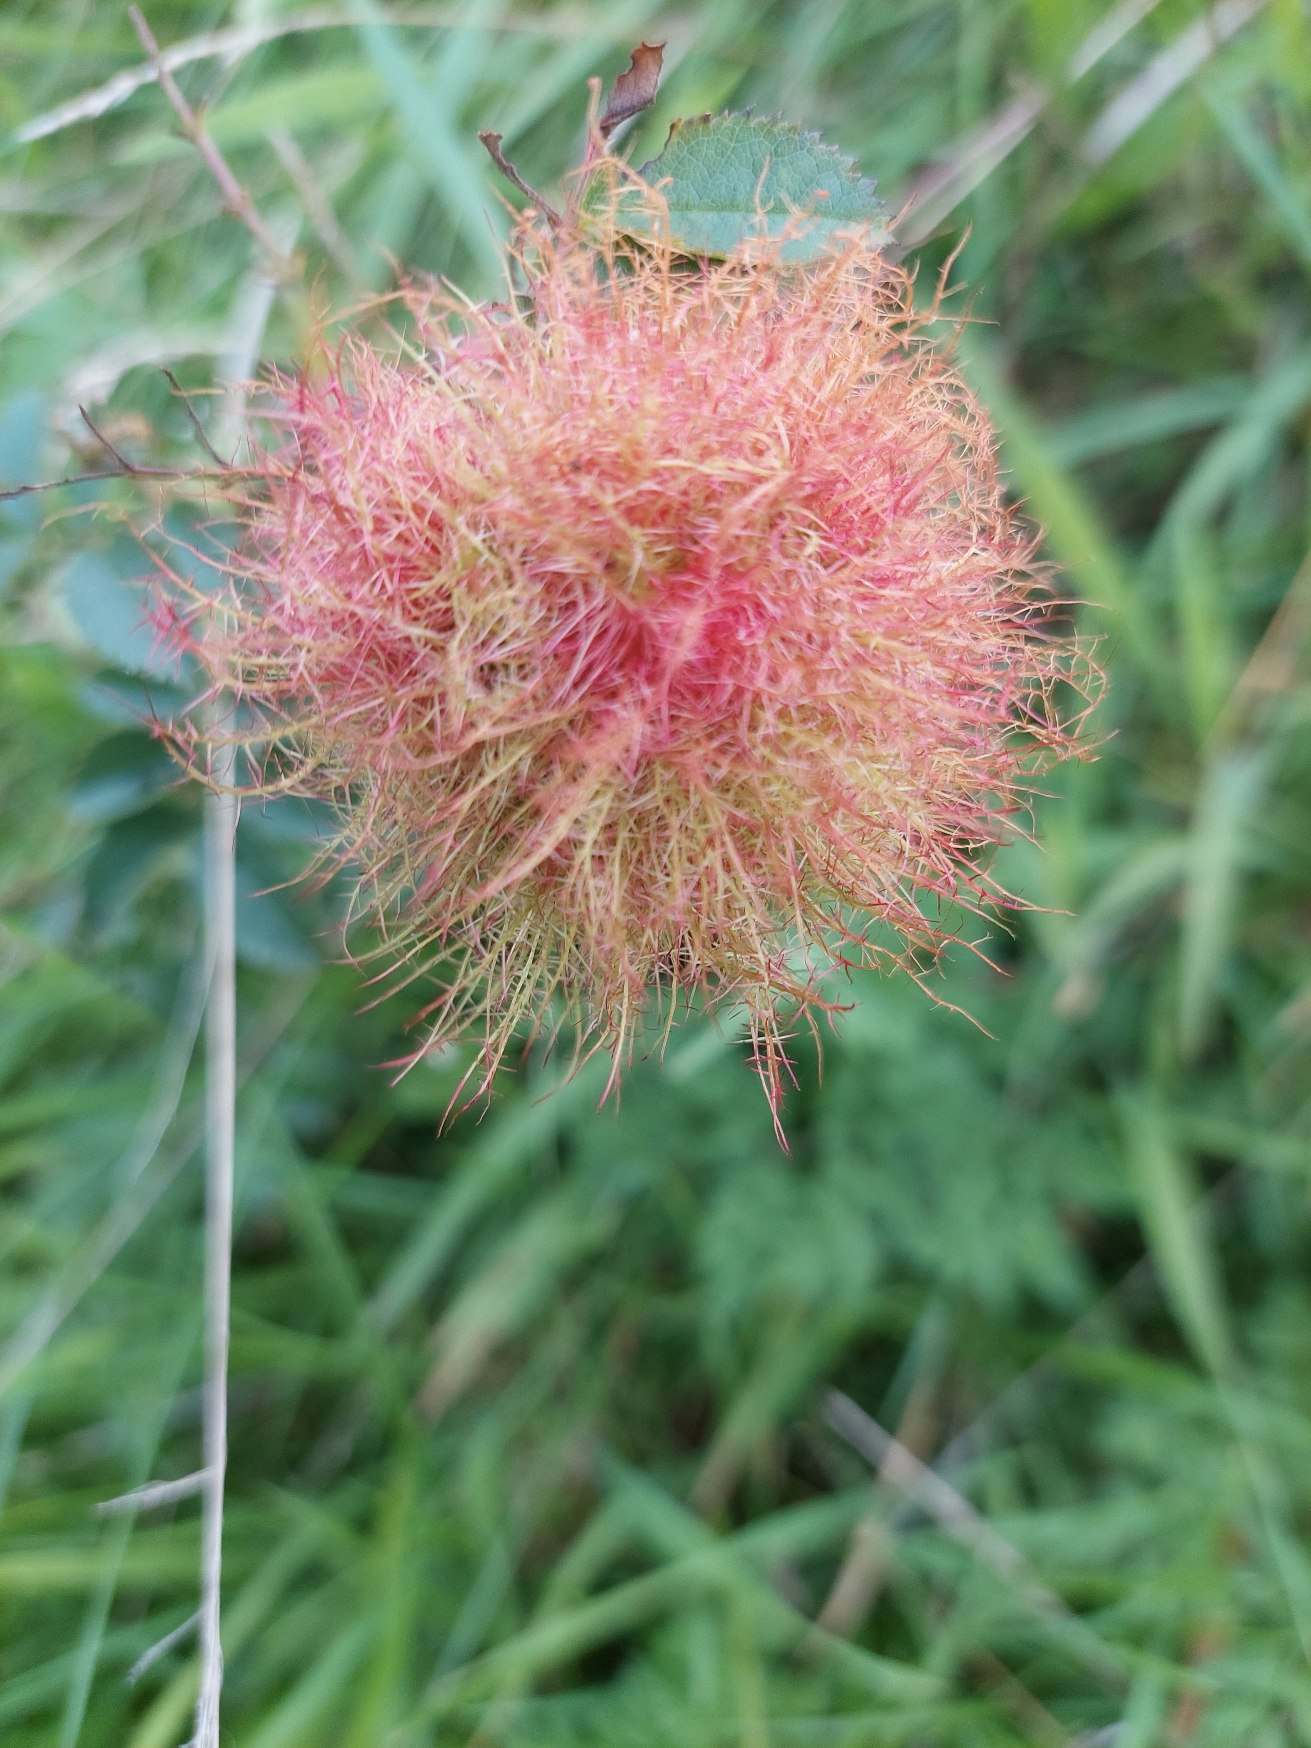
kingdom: Animalia
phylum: Arthropoda
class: Insecta
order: Hymenoptera
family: Cynipidae
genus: Diplolepis
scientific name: Diplolepis rosae
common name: Bedeguargalhveps
